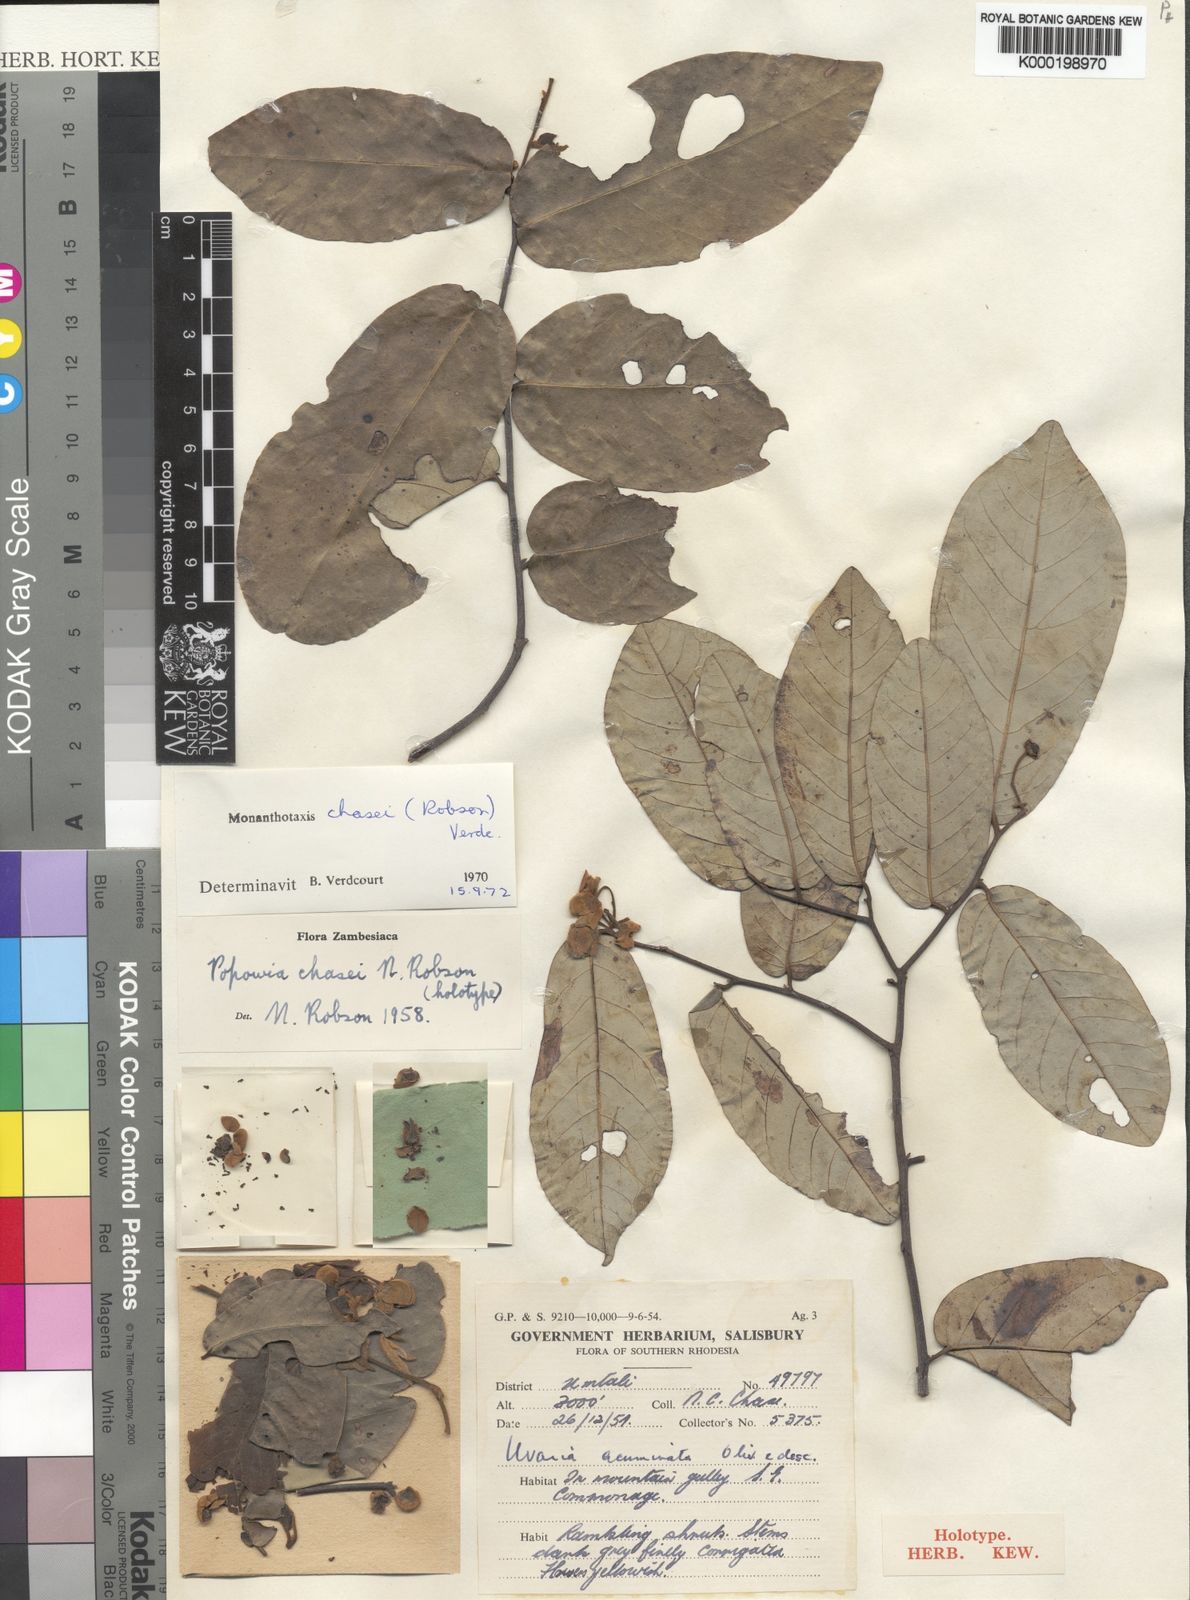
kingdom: Plantae
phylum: Tracheophyta
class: Magnoliopsida
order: Magnoliales
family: Annonaceae
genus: Monanthotaxis
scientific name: Monanthotaxis chasei
